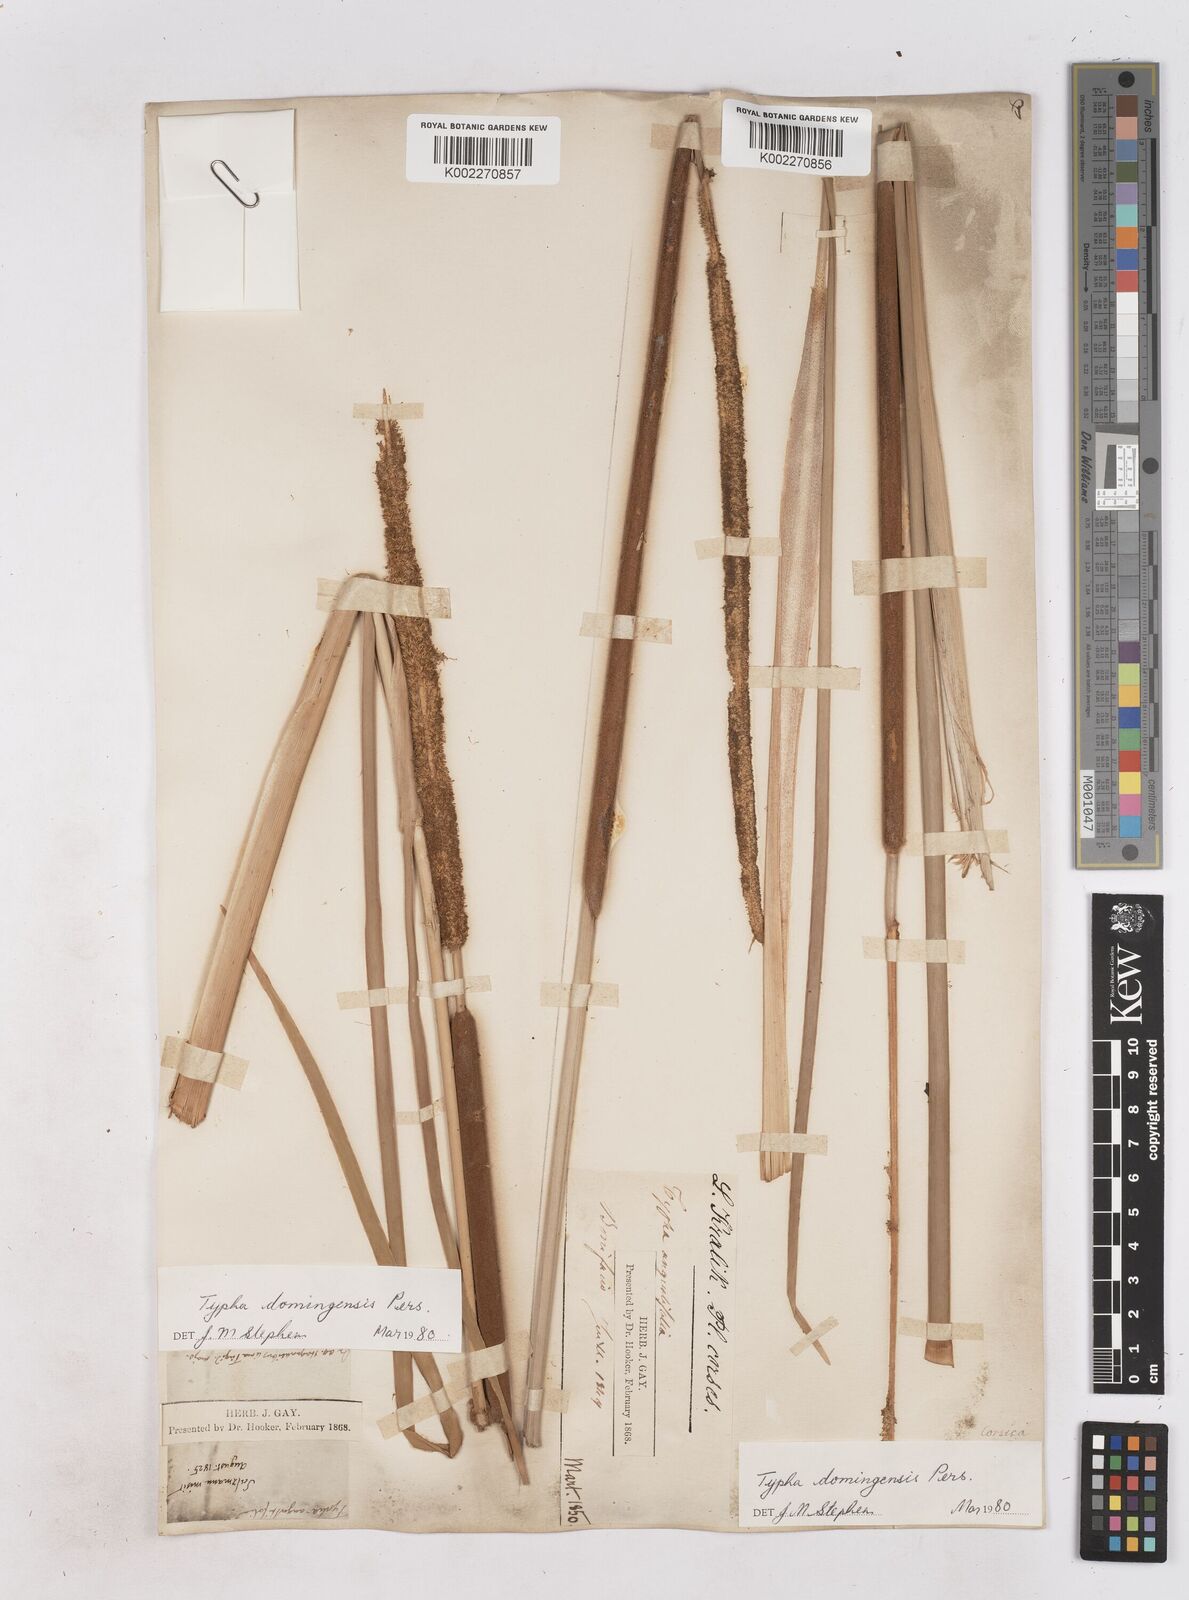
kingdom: Plantae
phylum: Tracheophyta
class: Liliopsida
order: Poales
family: Typhaceae
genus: Typha
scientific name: Typha domingensis
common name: Southern cattail
